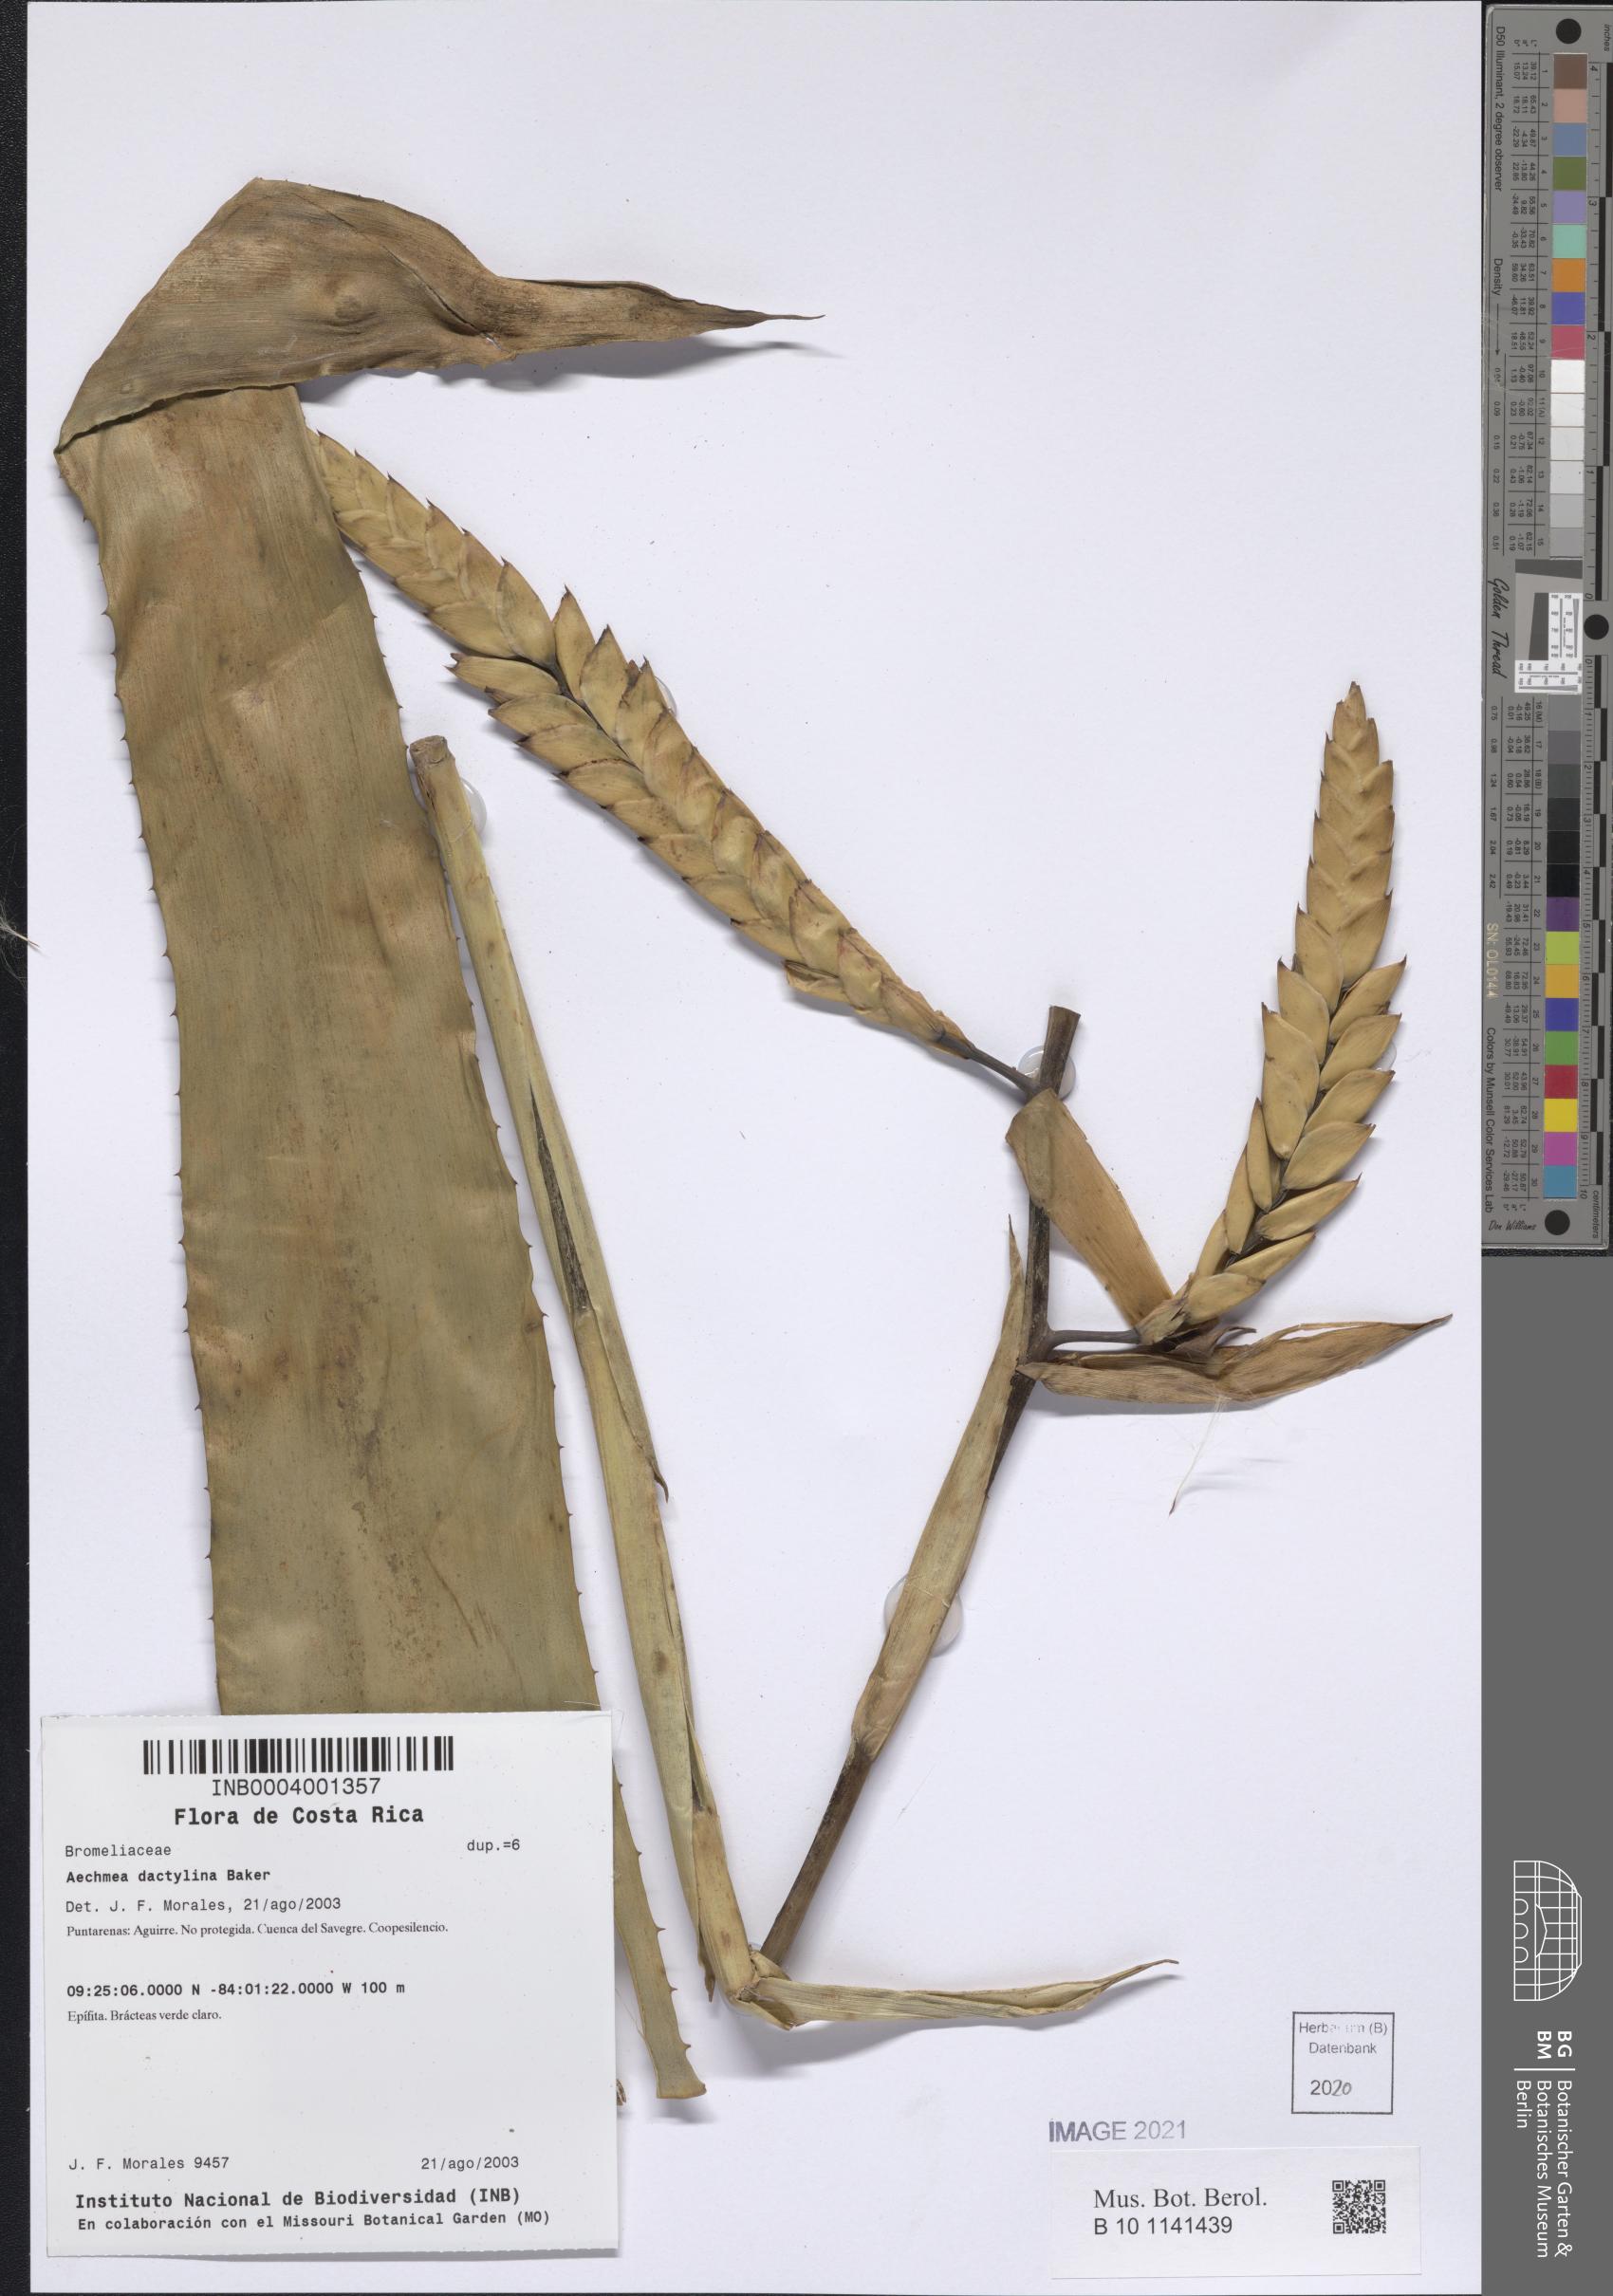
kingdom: Plantae
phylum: Tracheophyta
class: Liliopsida
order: Poales
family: Bromeliaceae
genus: Aechmea
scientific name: Aechmea dactylina
